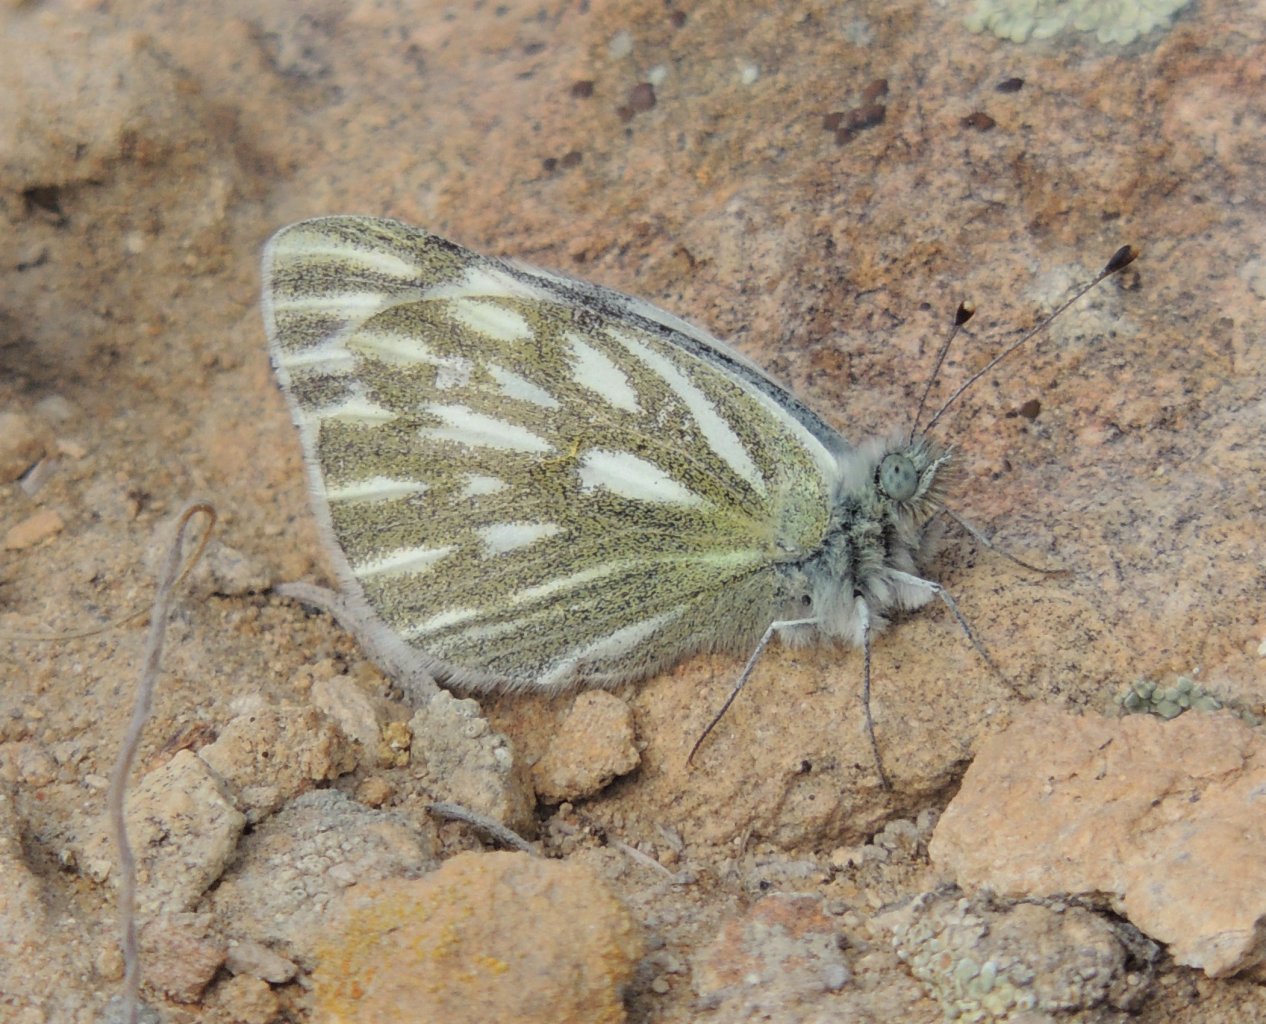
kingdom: Animalia
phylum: Arthropoda
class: Insecta
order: Lepidoptera
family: Pieridae
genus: Pontia
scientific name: Pontia occidentalis
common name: Western White
